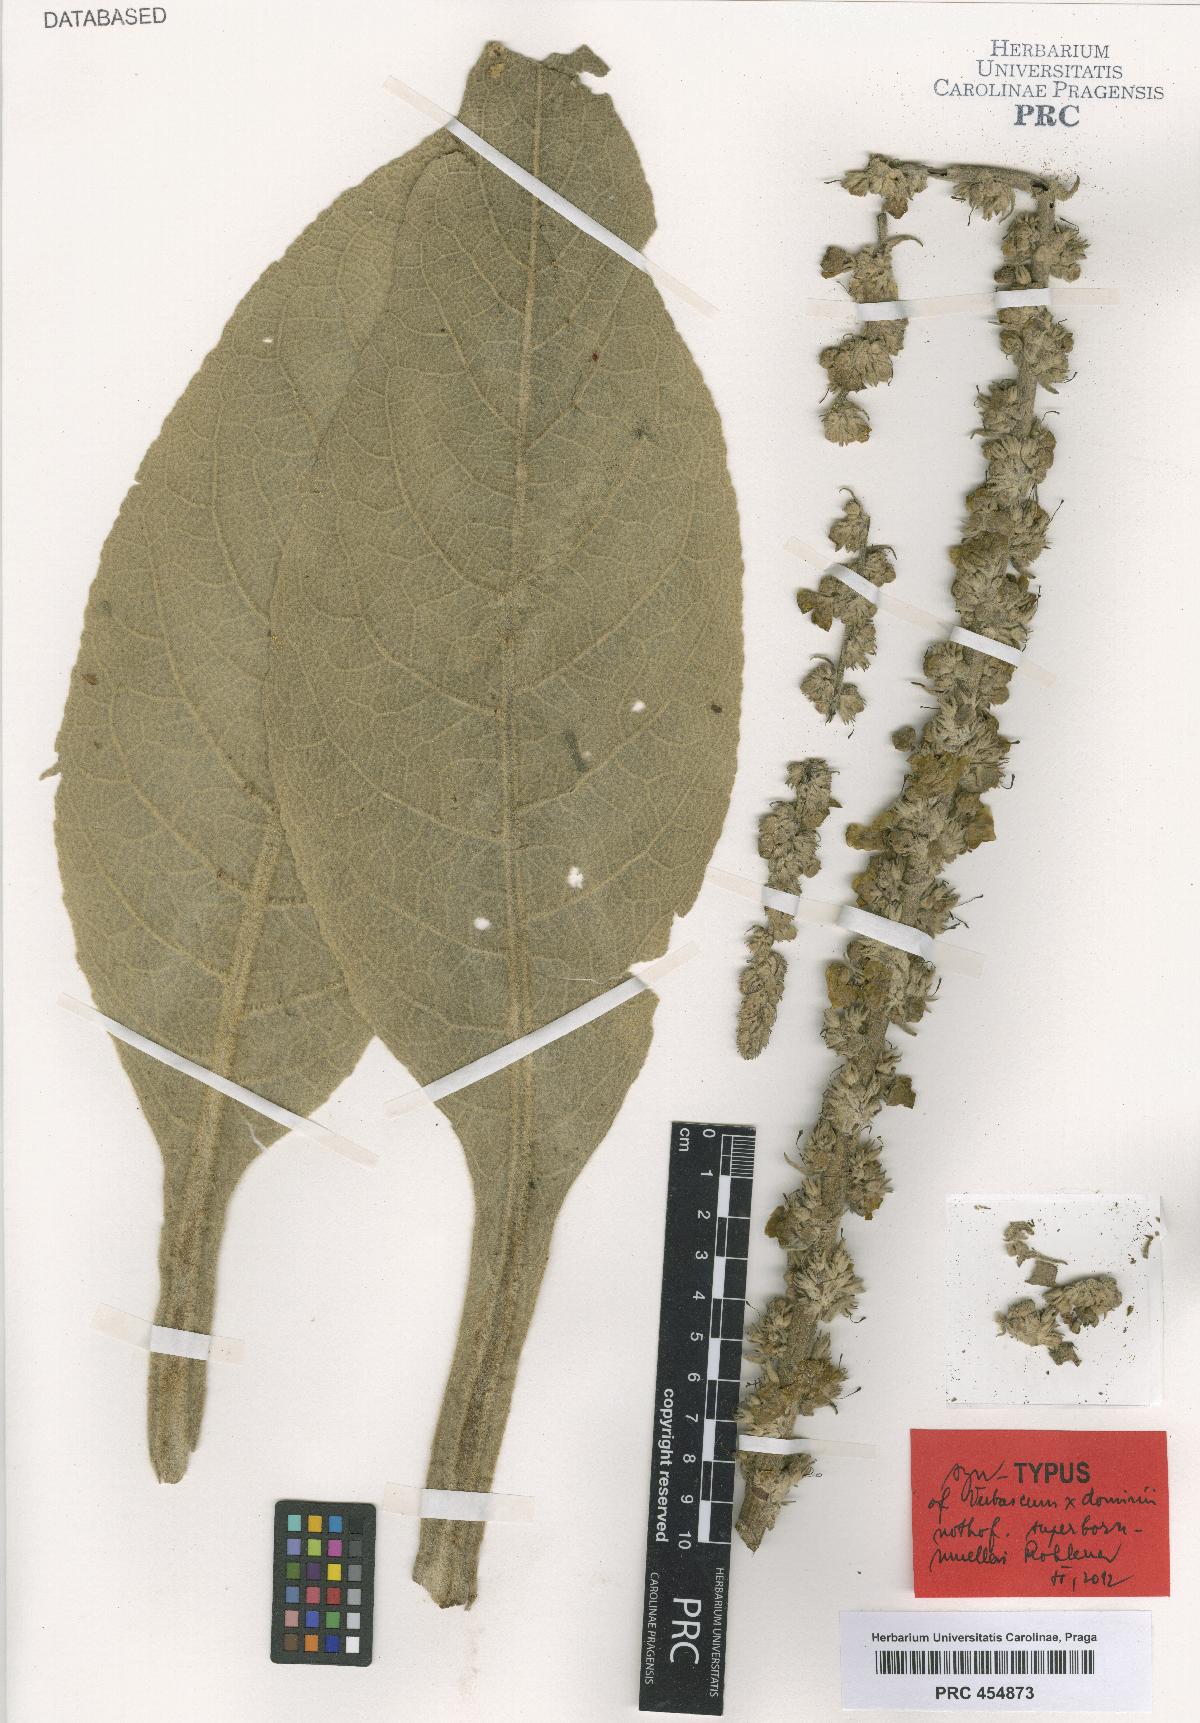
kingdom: Plantae
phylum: Tracheophyta
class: Magnoliopsida
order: Lamiales
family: Scrophulariaceae
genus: Verbascum
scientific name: Verbascum dominii
